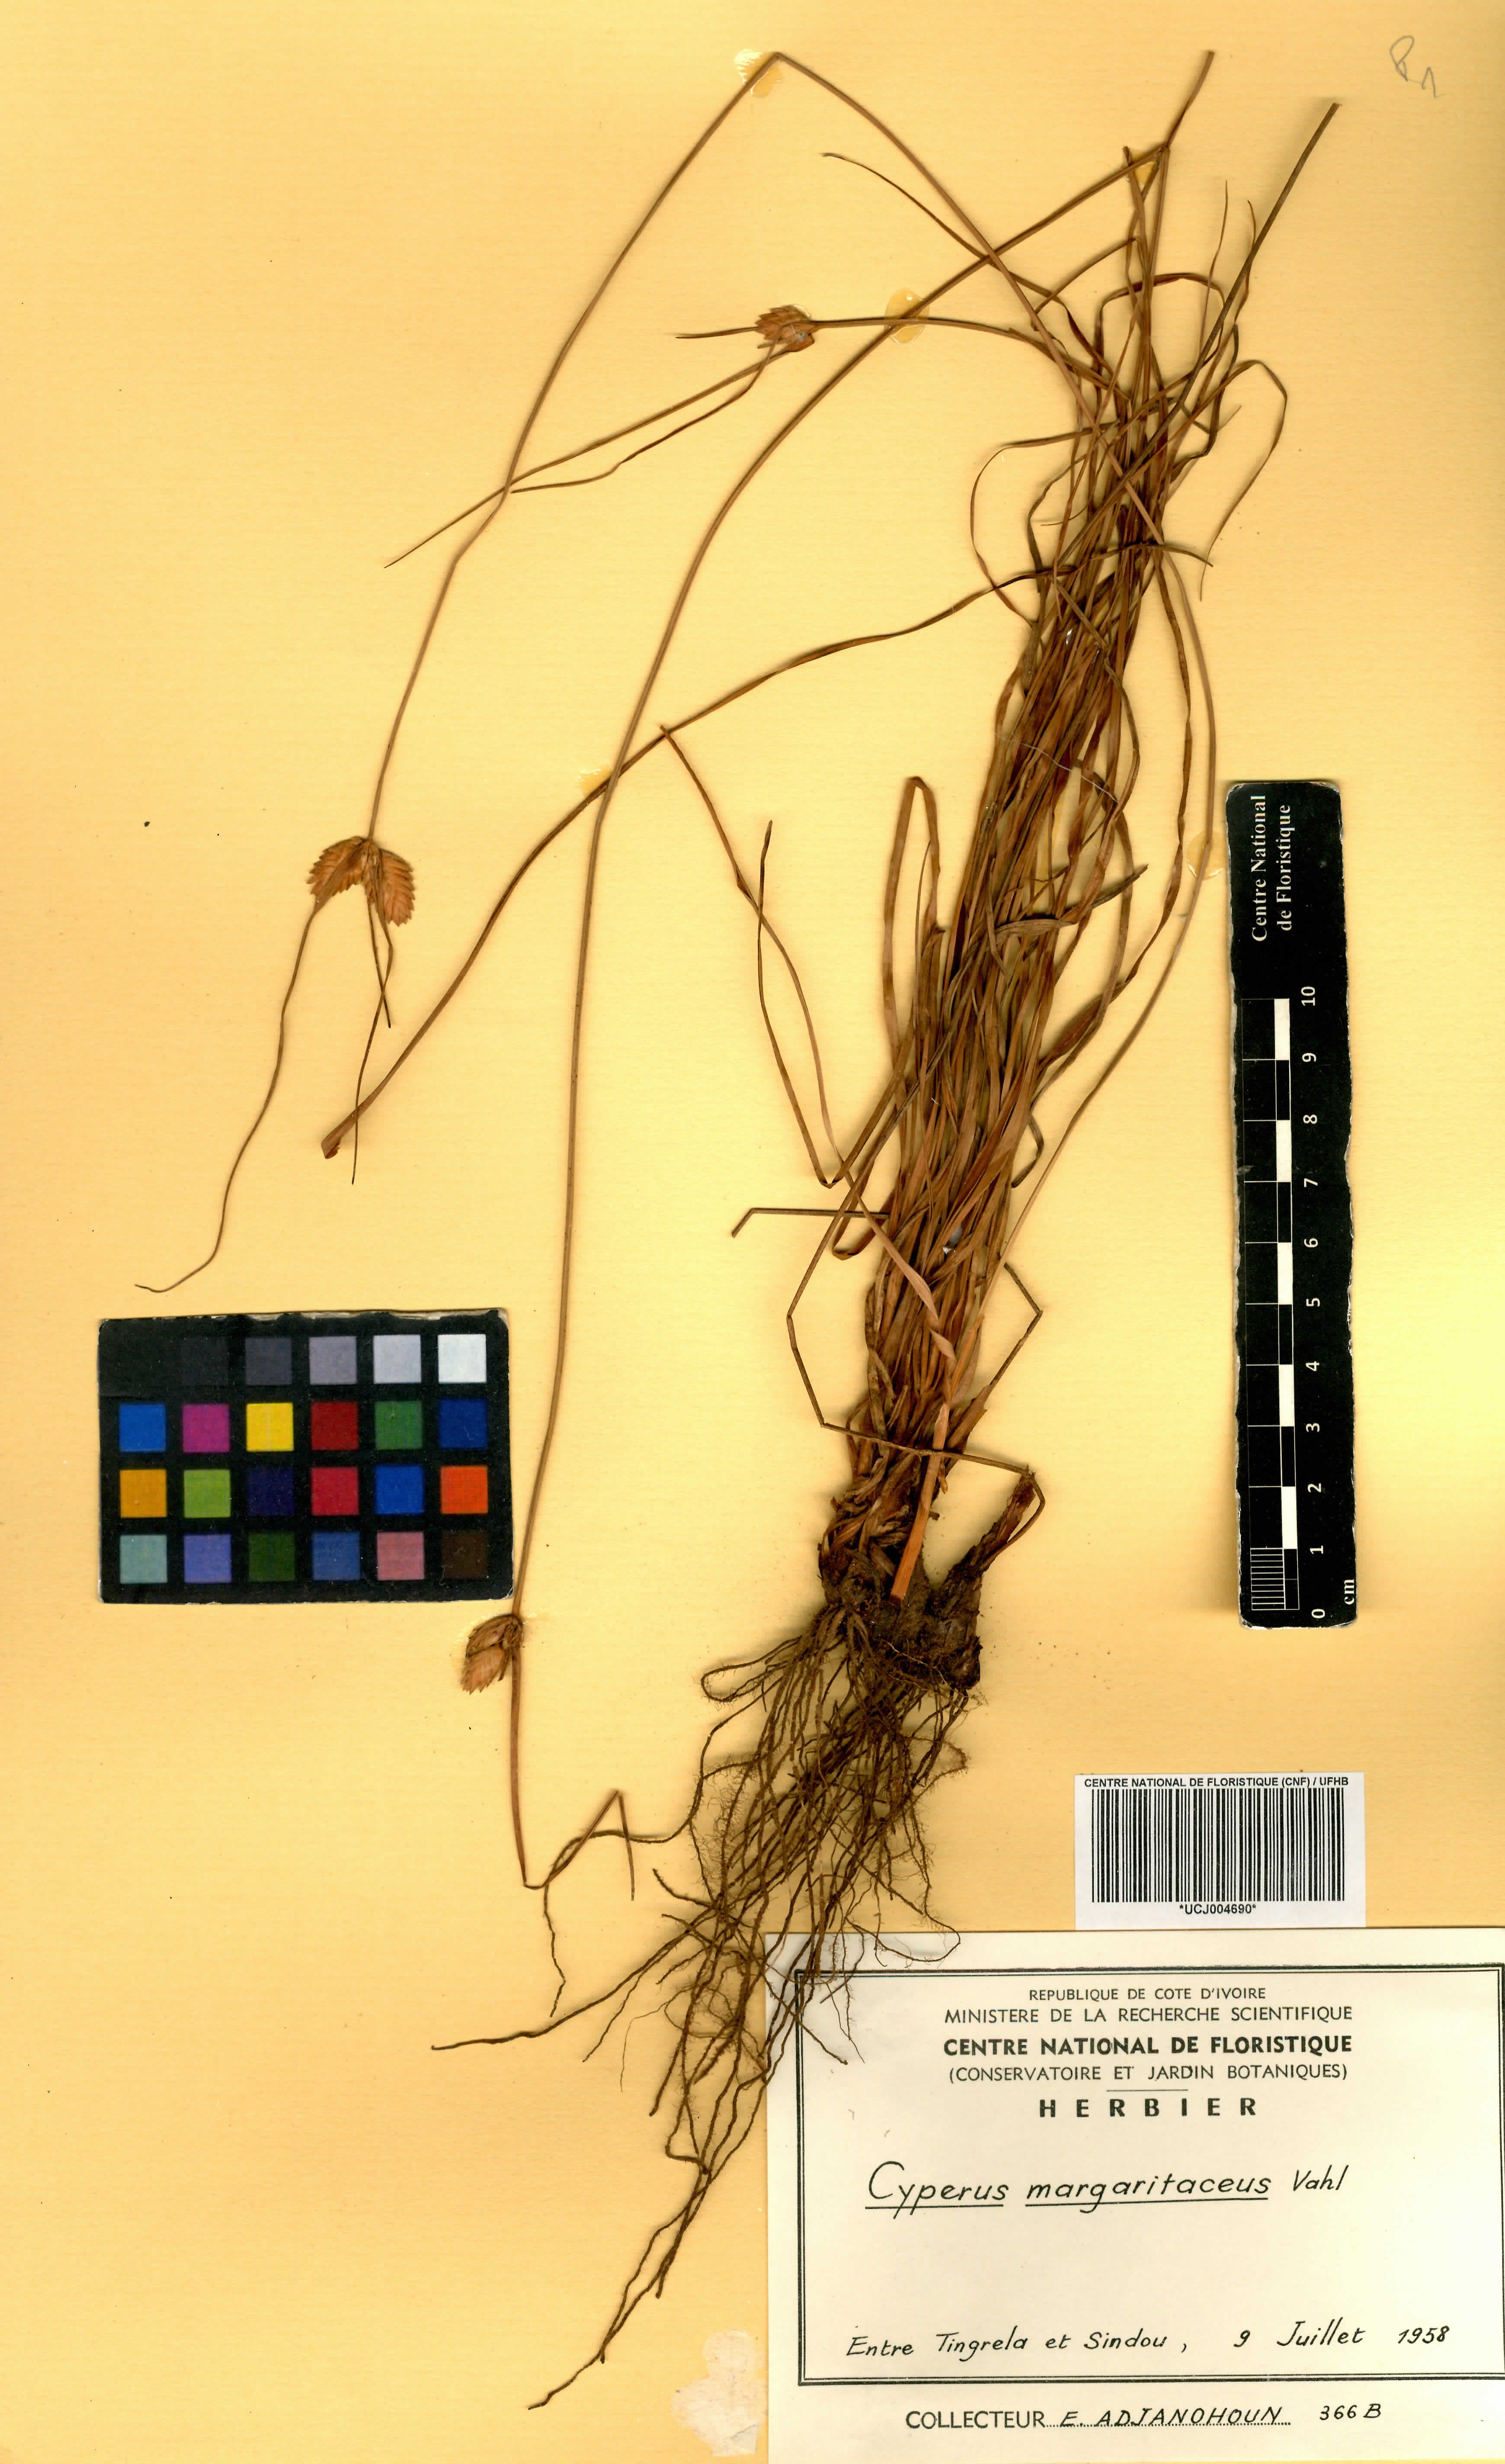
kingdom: Plantae
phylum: Tracheophyta
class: Liliopsida
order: Poales
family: Cyperaceae
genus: Cyperus
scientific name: Cyperus margaritaceus
